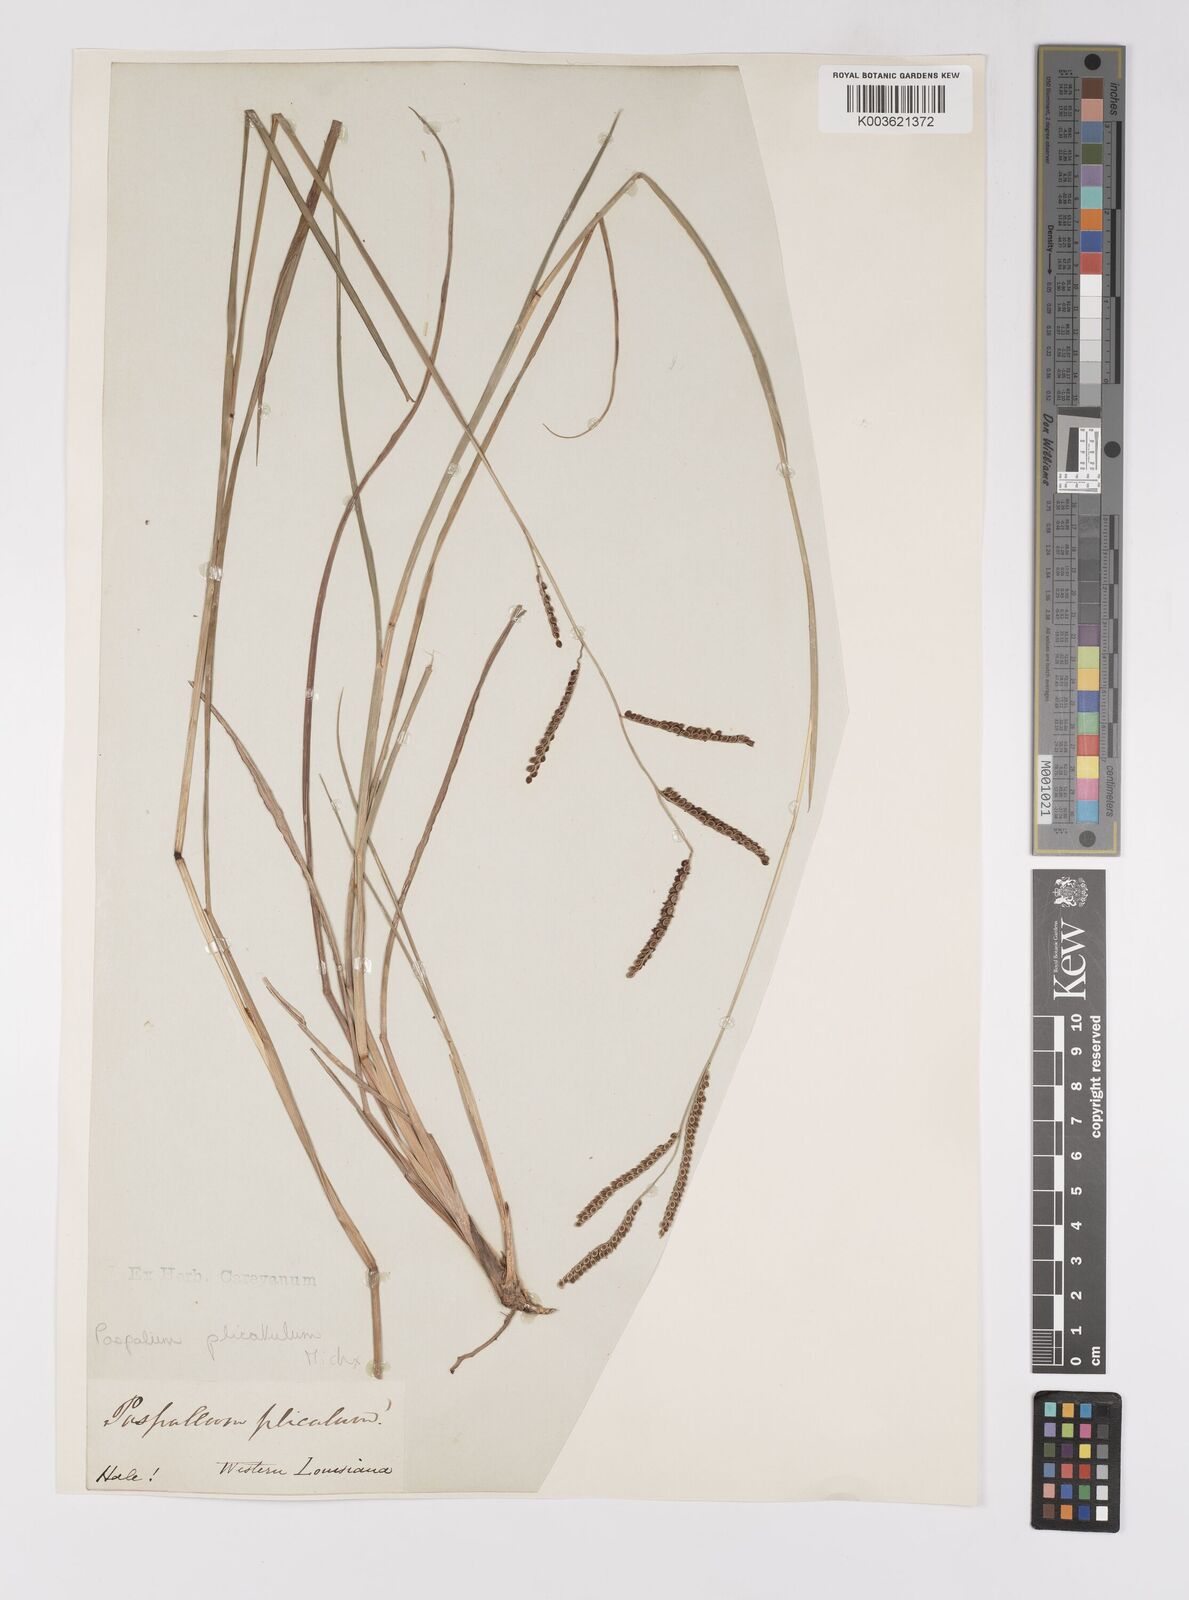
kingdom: Plantae
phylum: Tracheophyta
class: Liliopsida
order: Poales
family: Poaceae
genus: Paspalum
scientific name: Paspalum plicatulum
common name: Top paspalum
